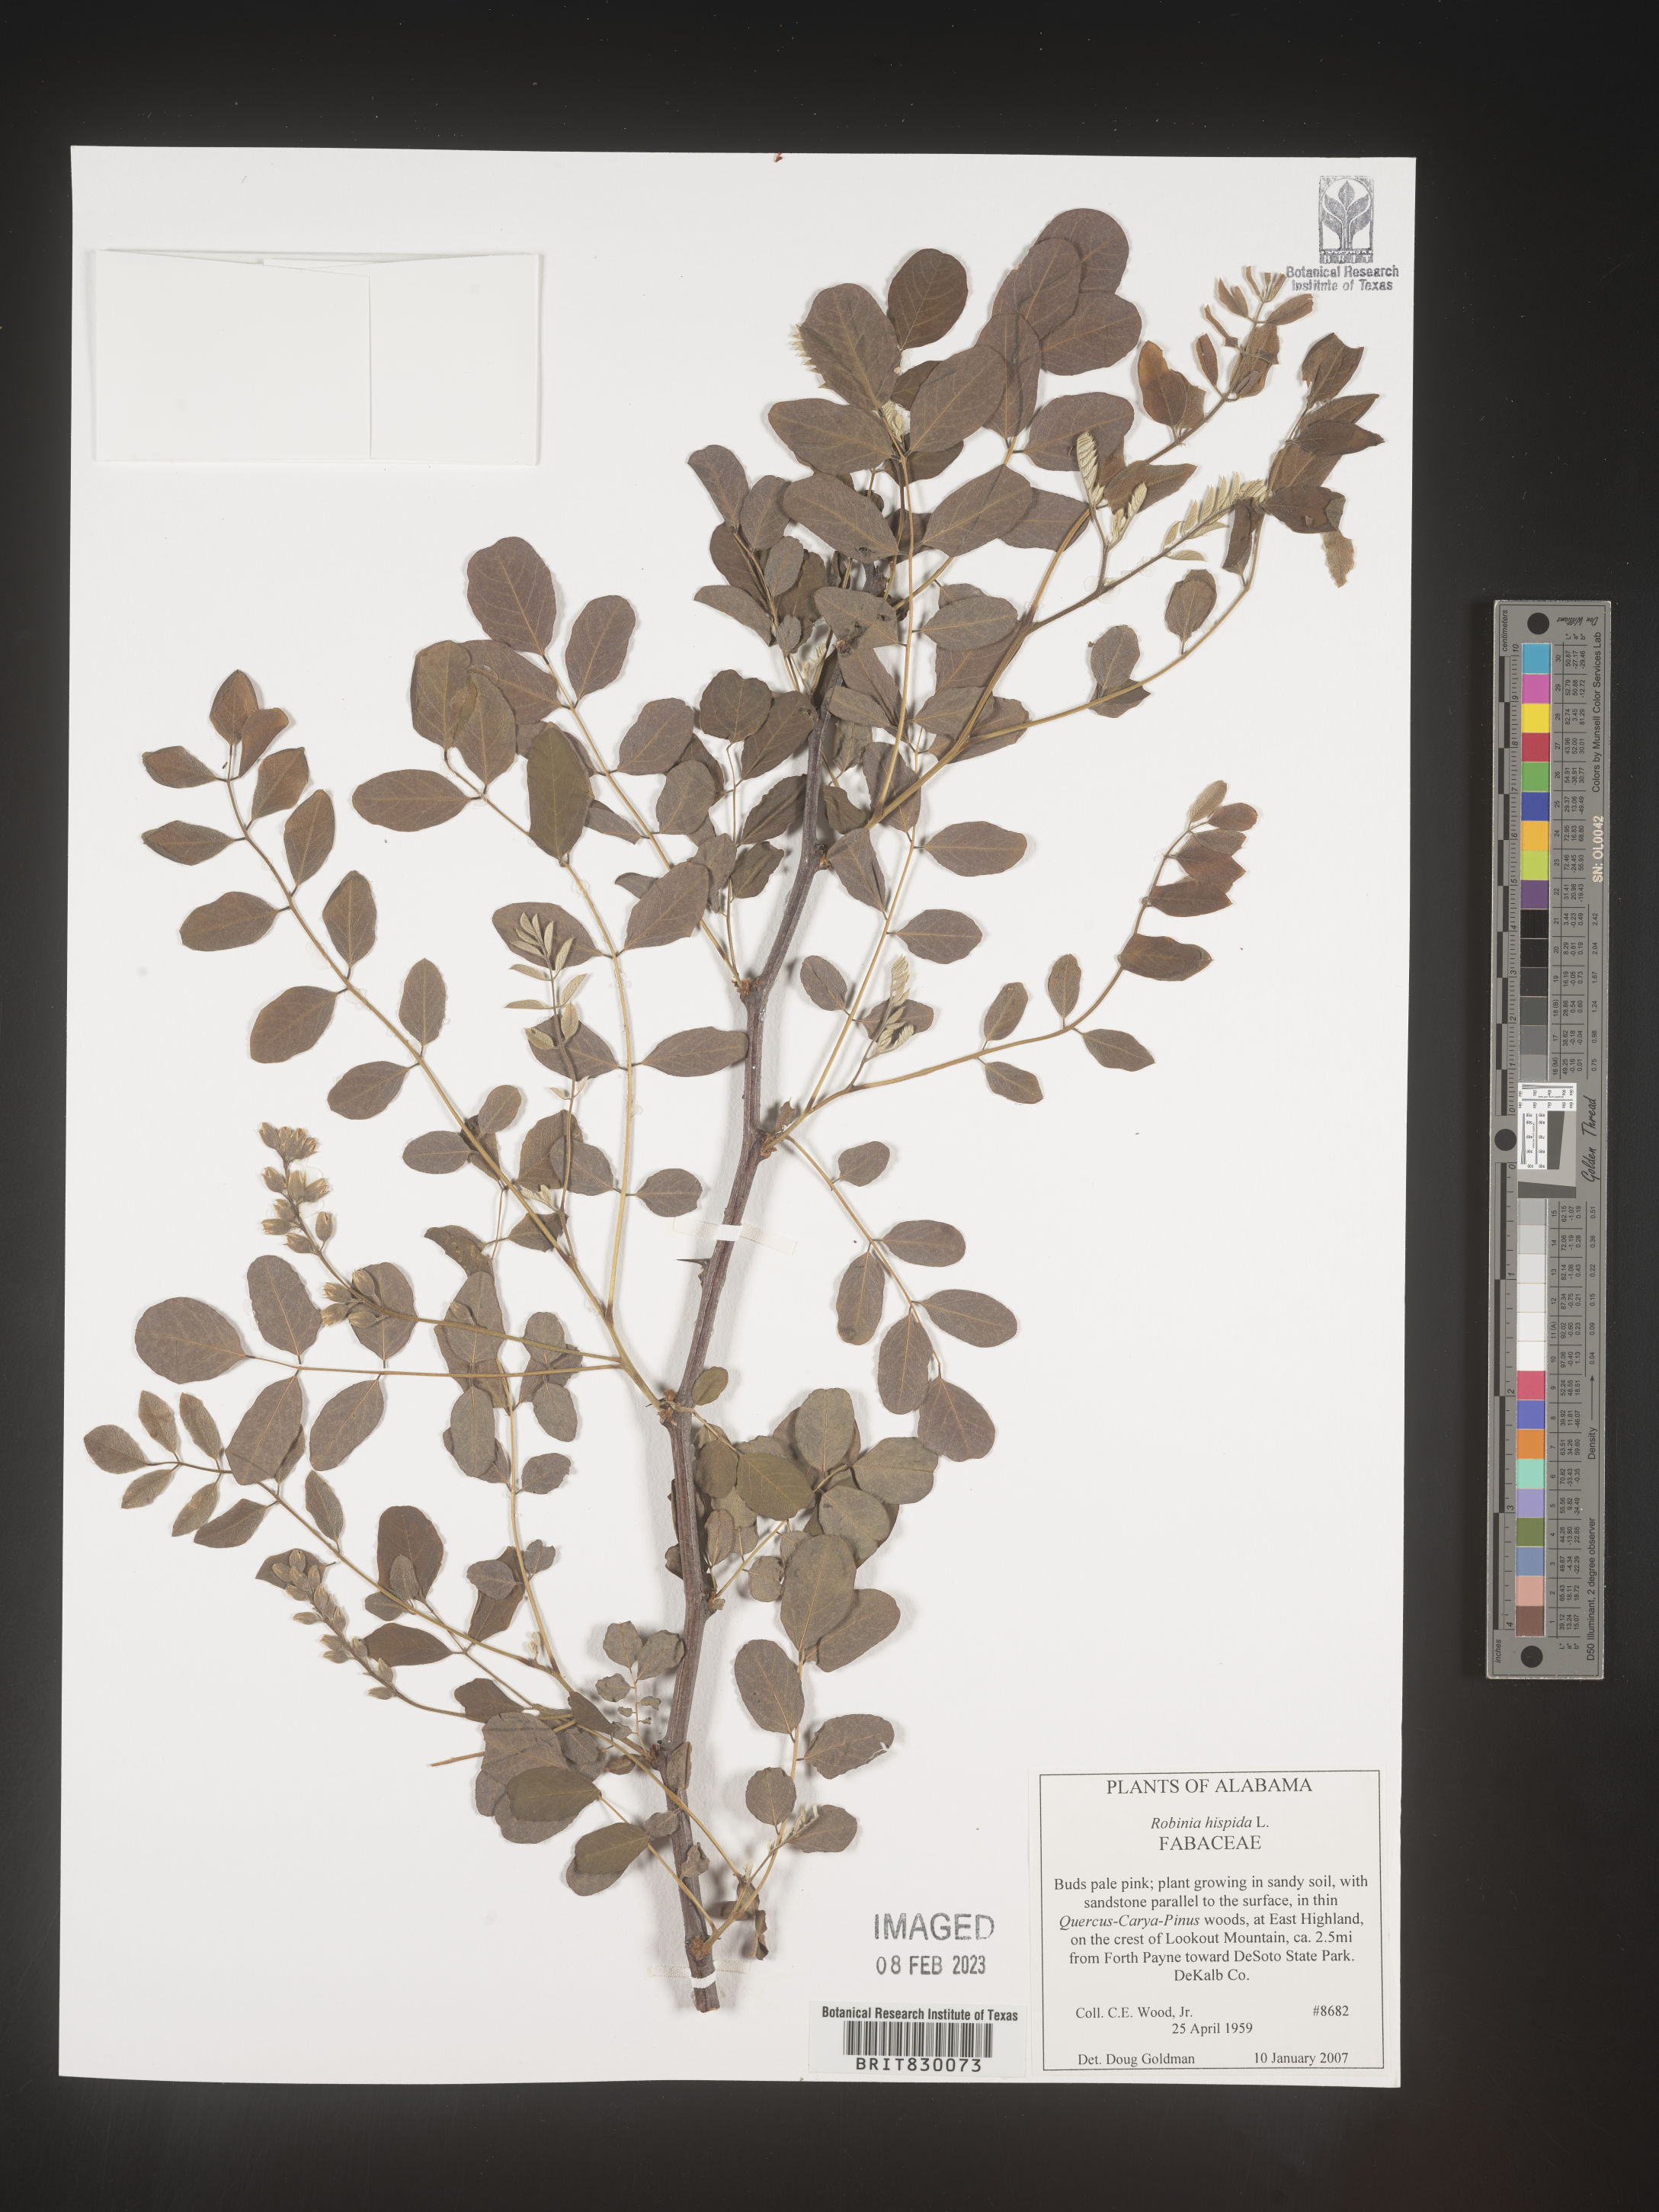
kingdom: Plantae
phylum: Tracheophyta
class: Magnoliopsida
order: Fabales
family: Fabaceae
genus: Robinia
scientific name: Robinia hispida
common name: Bristly locust
